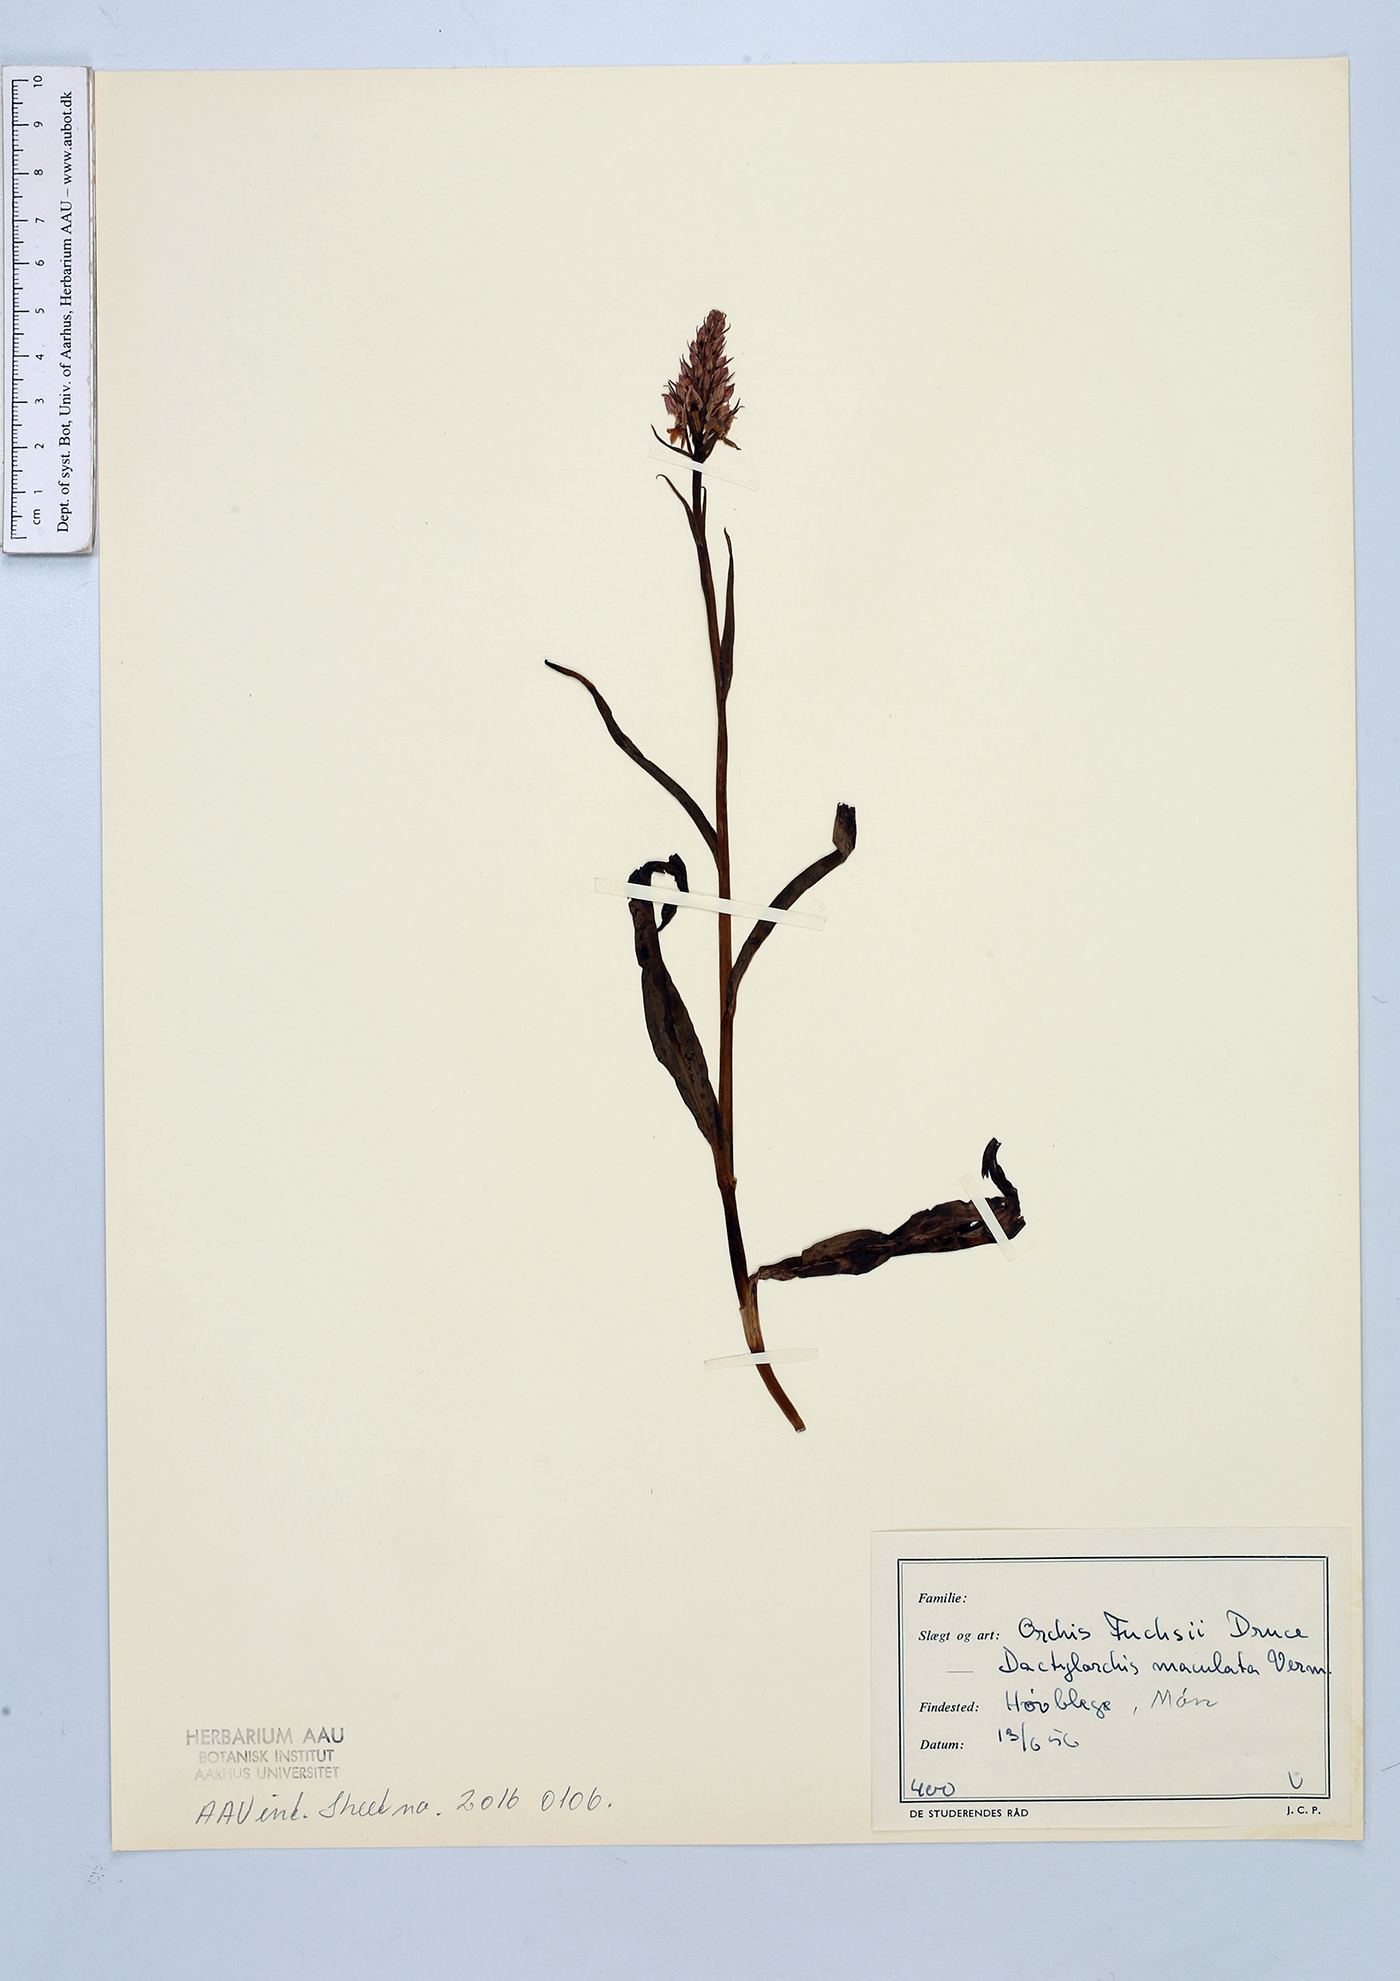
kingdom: Plantae
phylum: Tracheophyta
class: Liliopsida
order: Asparagales
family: Orchidaceae
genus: Dactylorhiza
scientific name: Dactylorhiza maculata
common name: Heath spotted-orchid
